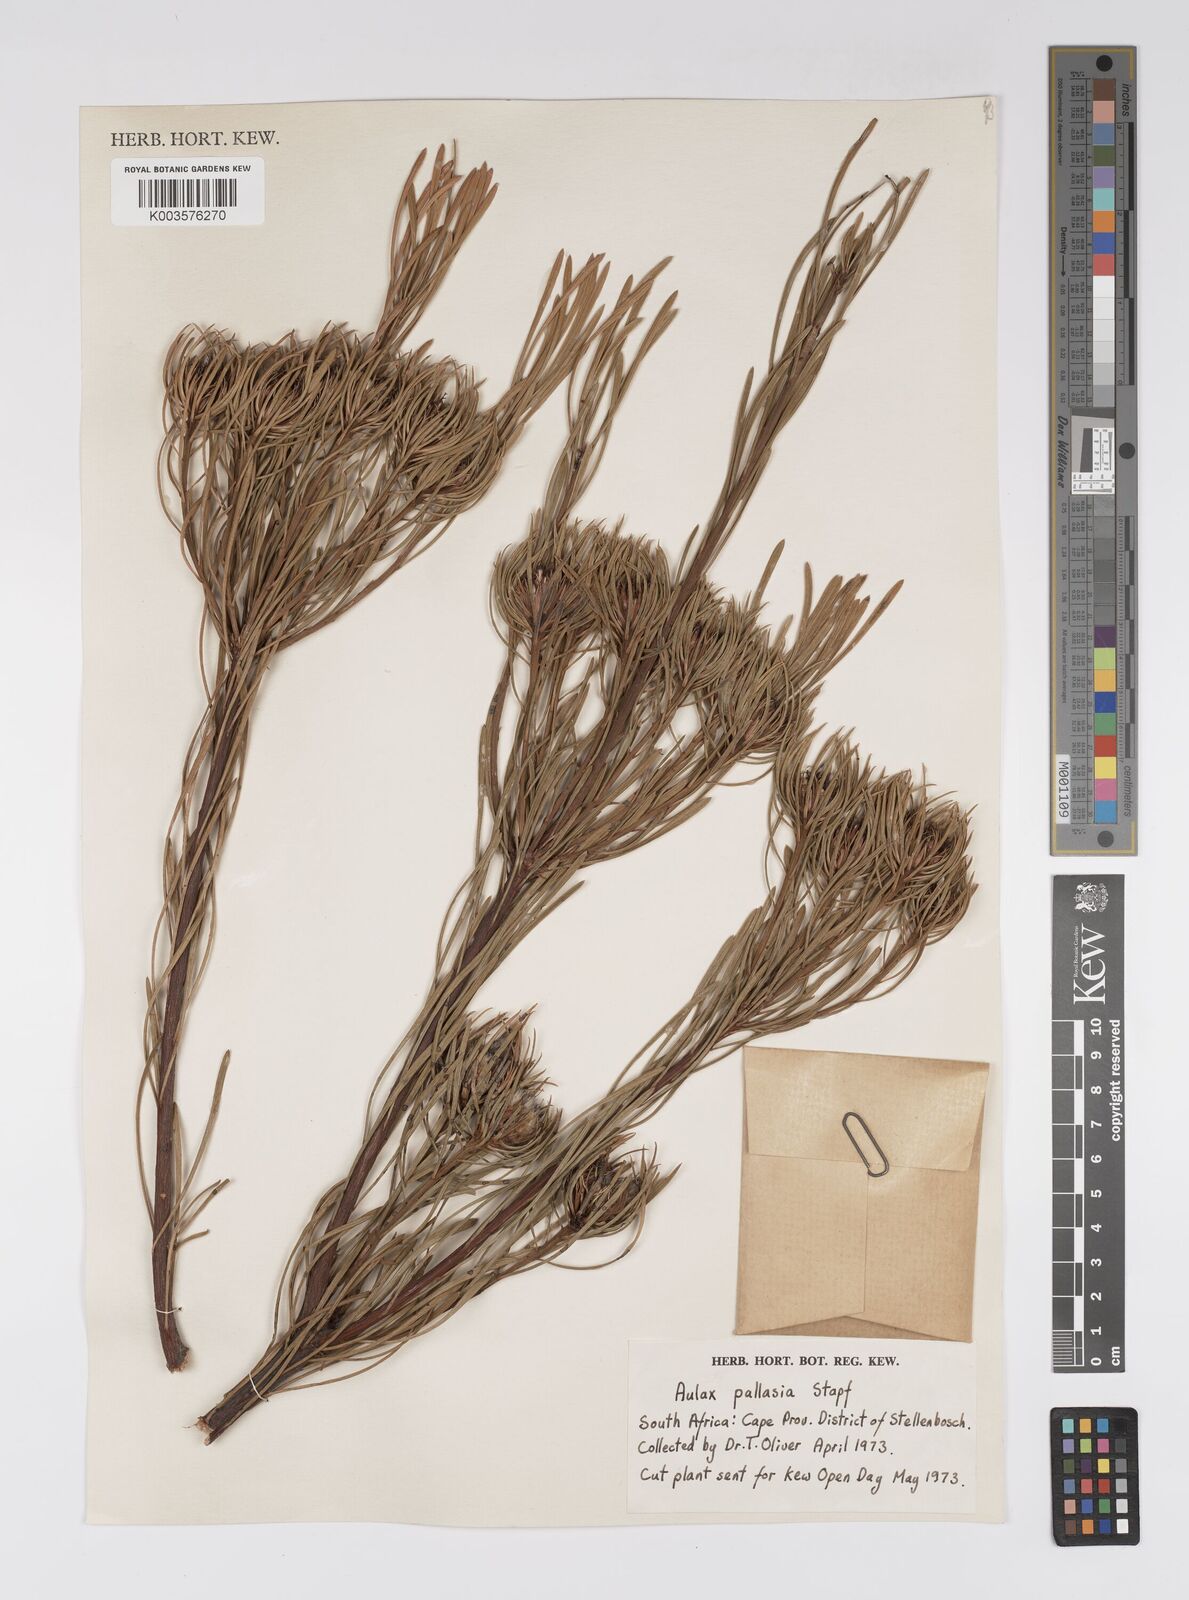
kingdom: Plantae
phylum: Tracheophyta
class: Magnoliopsida
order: Proteales
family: Proteaceae
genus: Aulax
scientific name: Aulax pallasia
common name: Needle-leaf featherbush
